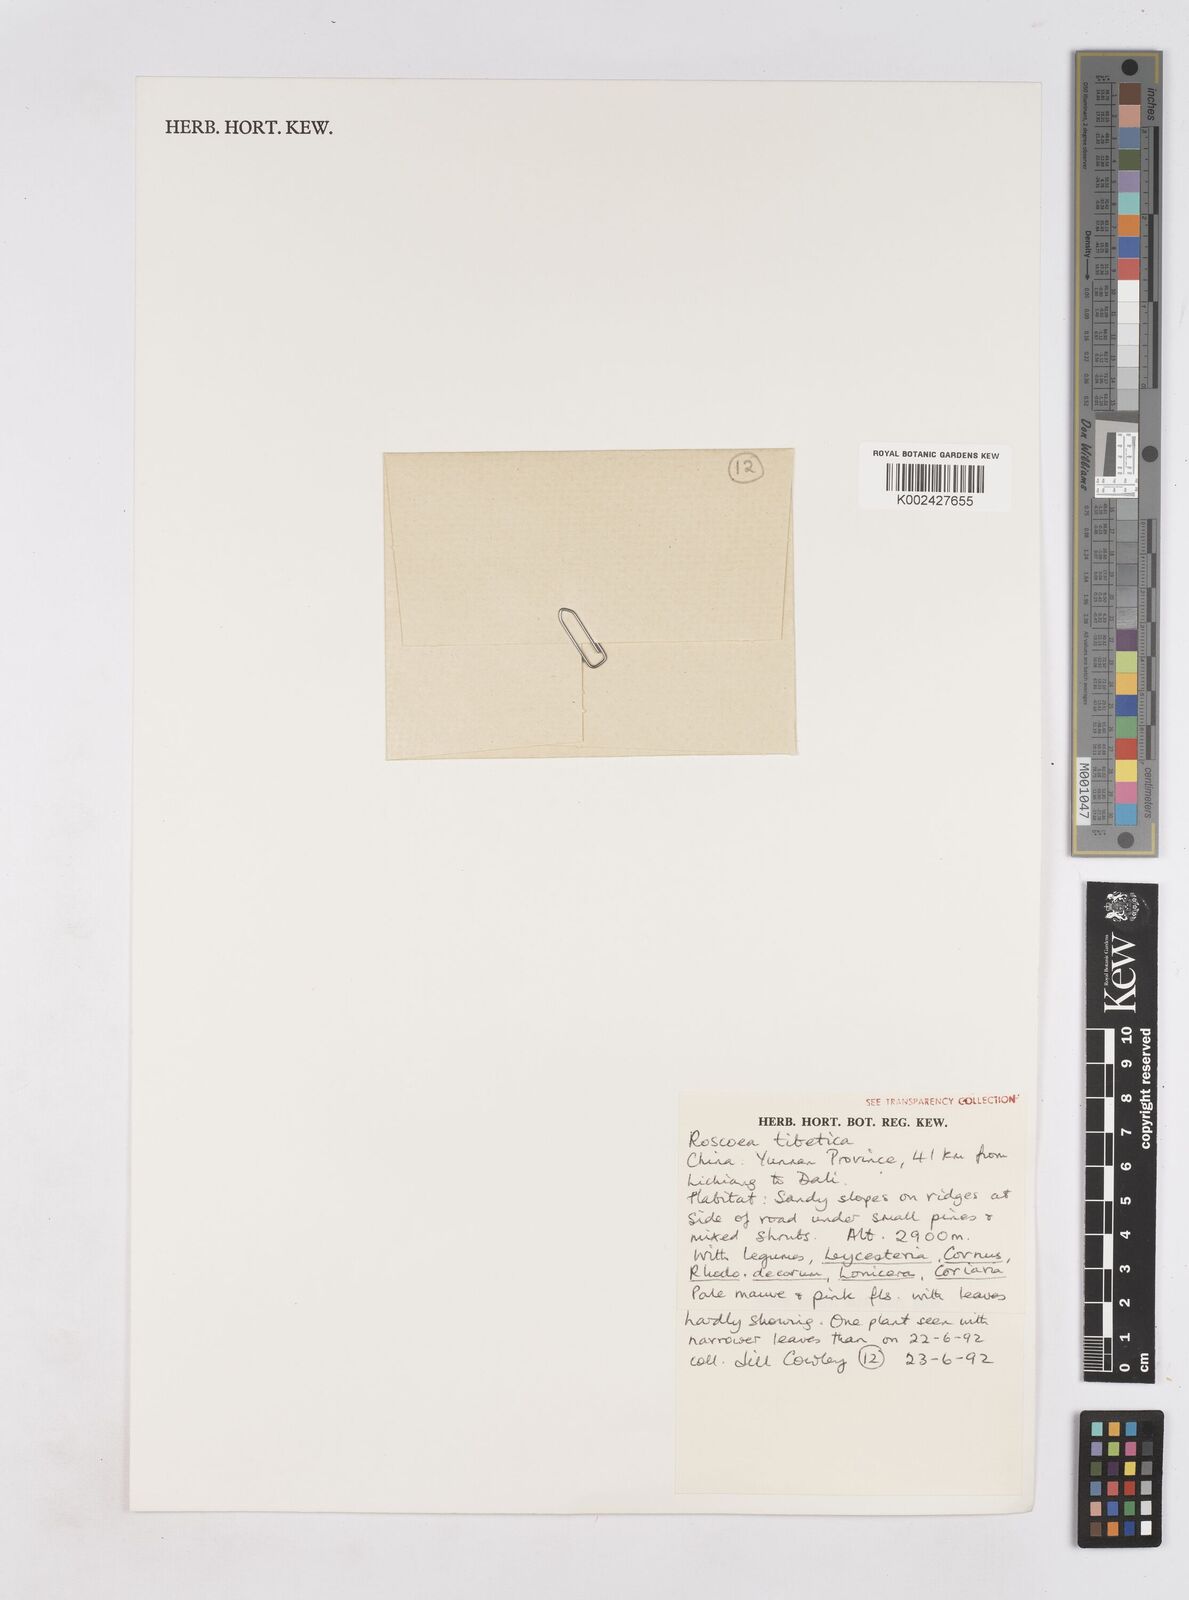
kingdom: Plantae
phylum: Tracheophyta
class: Liliopsida
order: Zingiberales
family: Zingiberaceae
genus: Roscoea
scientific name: Roscoea tibetica
